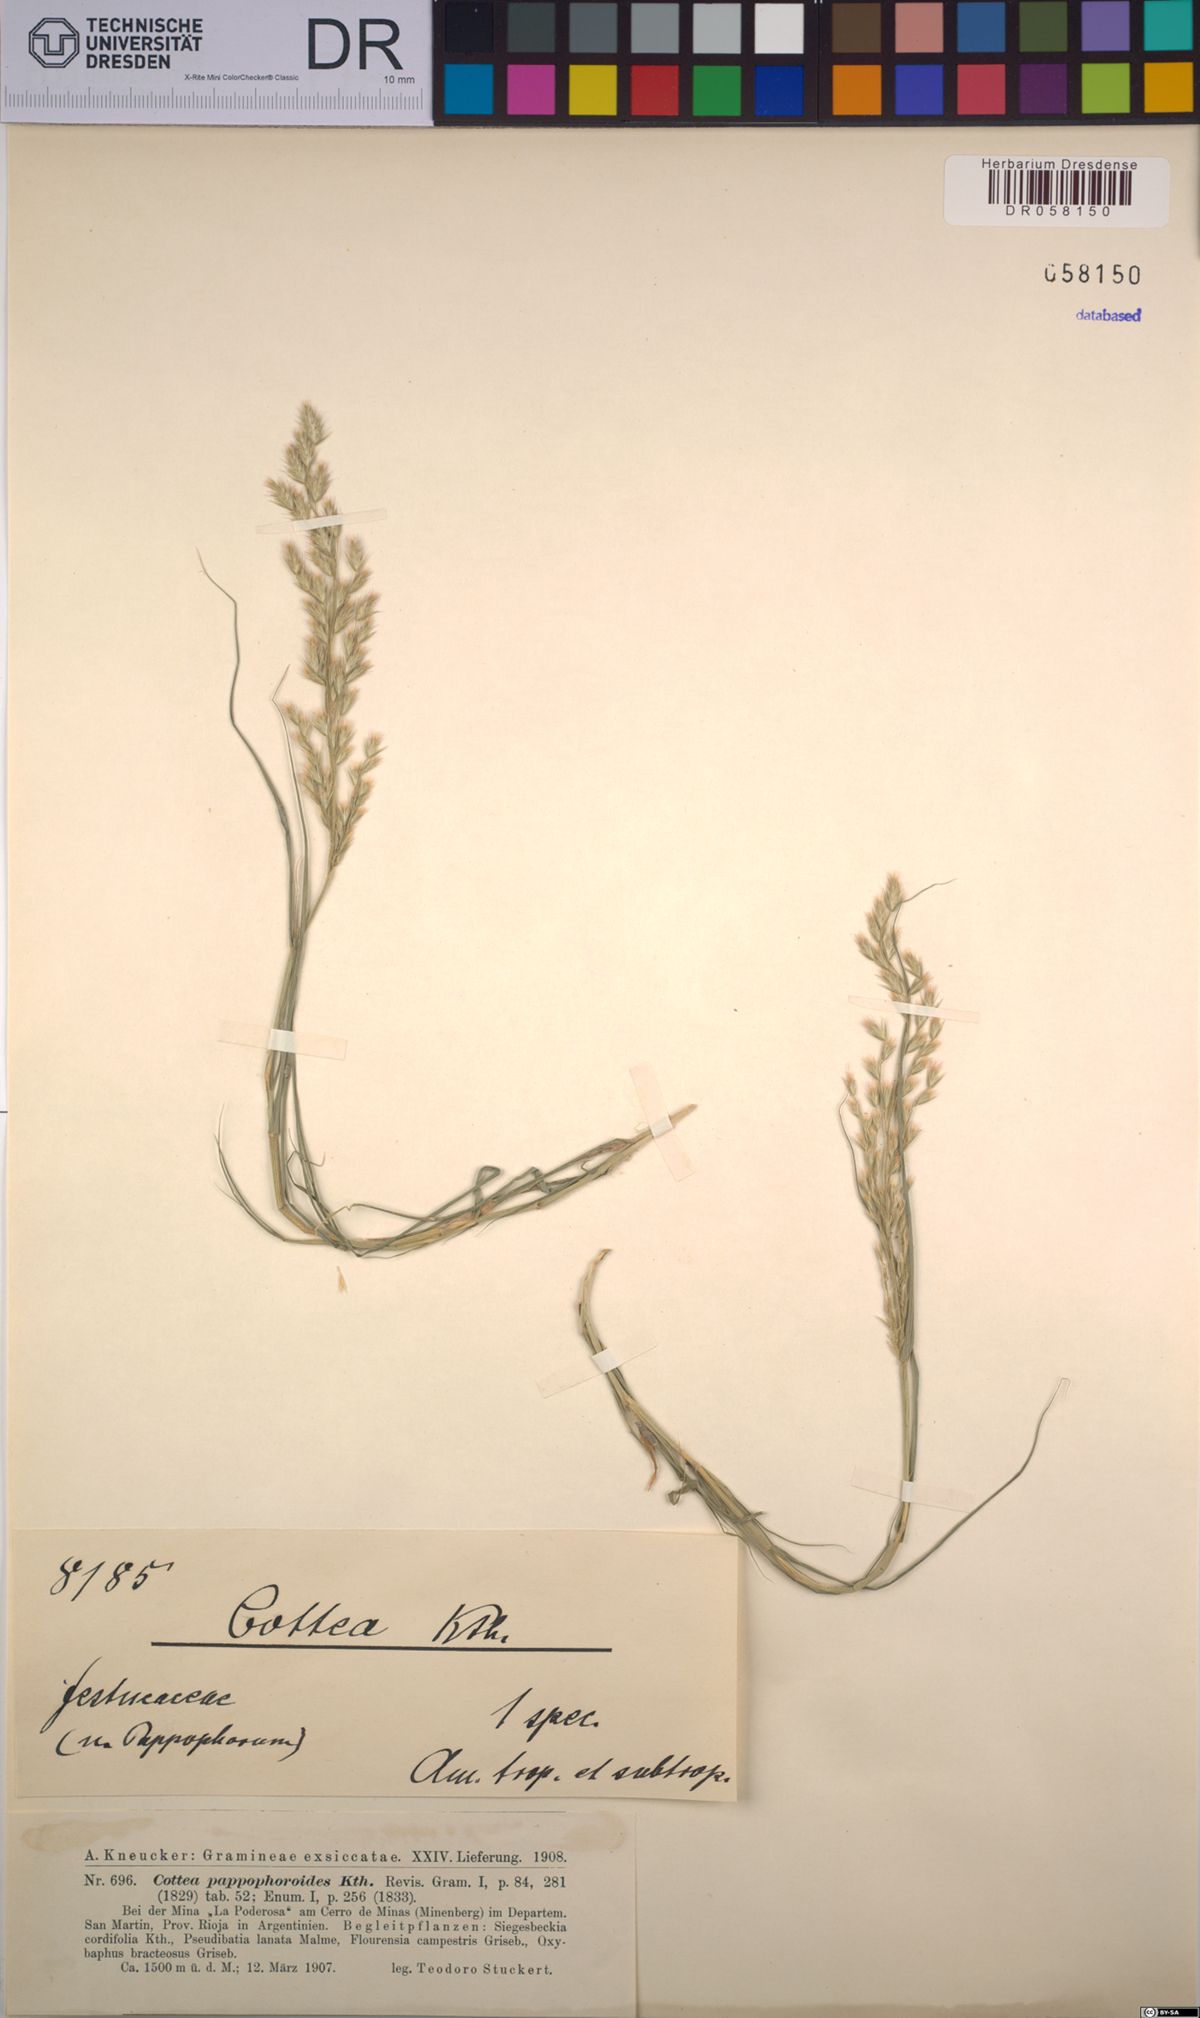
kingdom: Plantae
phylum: Tracheophyta
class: Liliopsida
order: Poales
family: Poaceae
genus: Cottea
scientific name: Cottea pappophoroides
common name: Cotta grass
